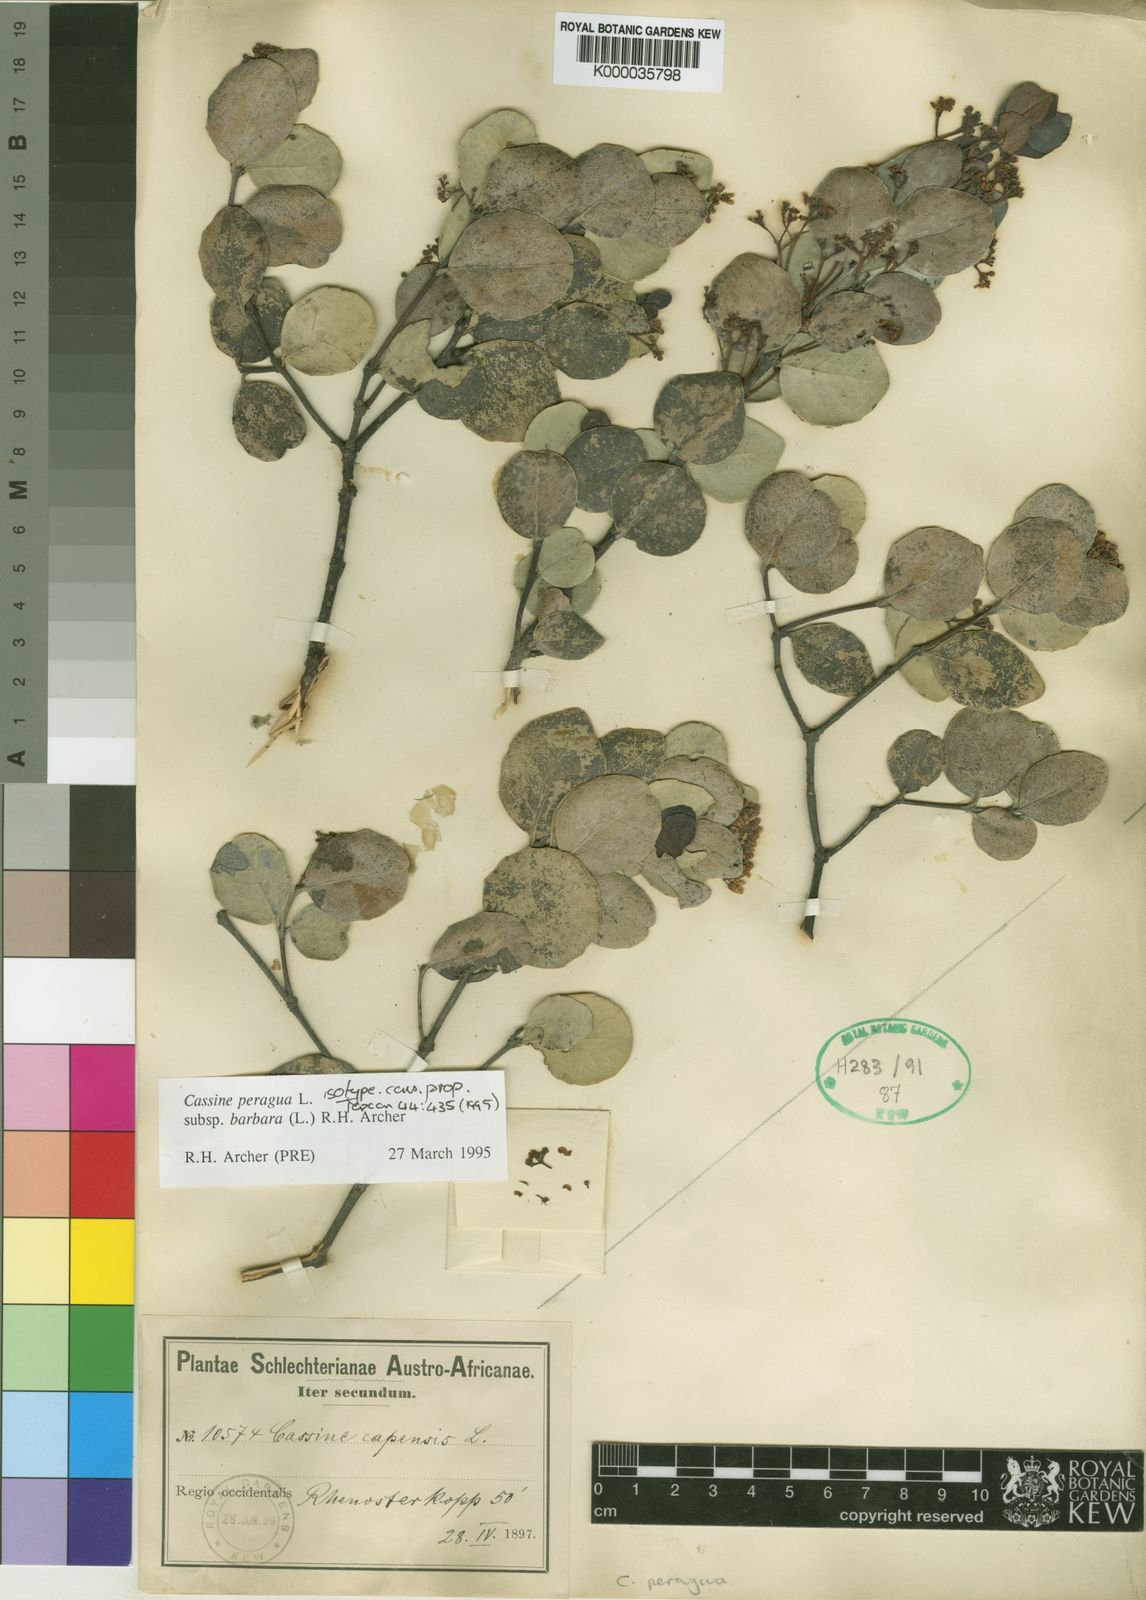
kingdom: Plantae
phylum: Tracheophyta
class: Magnoliopsida
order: Celastrales
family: Celastraceae
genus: Cassine
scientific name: Cassine peragua
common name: Cape saffron
